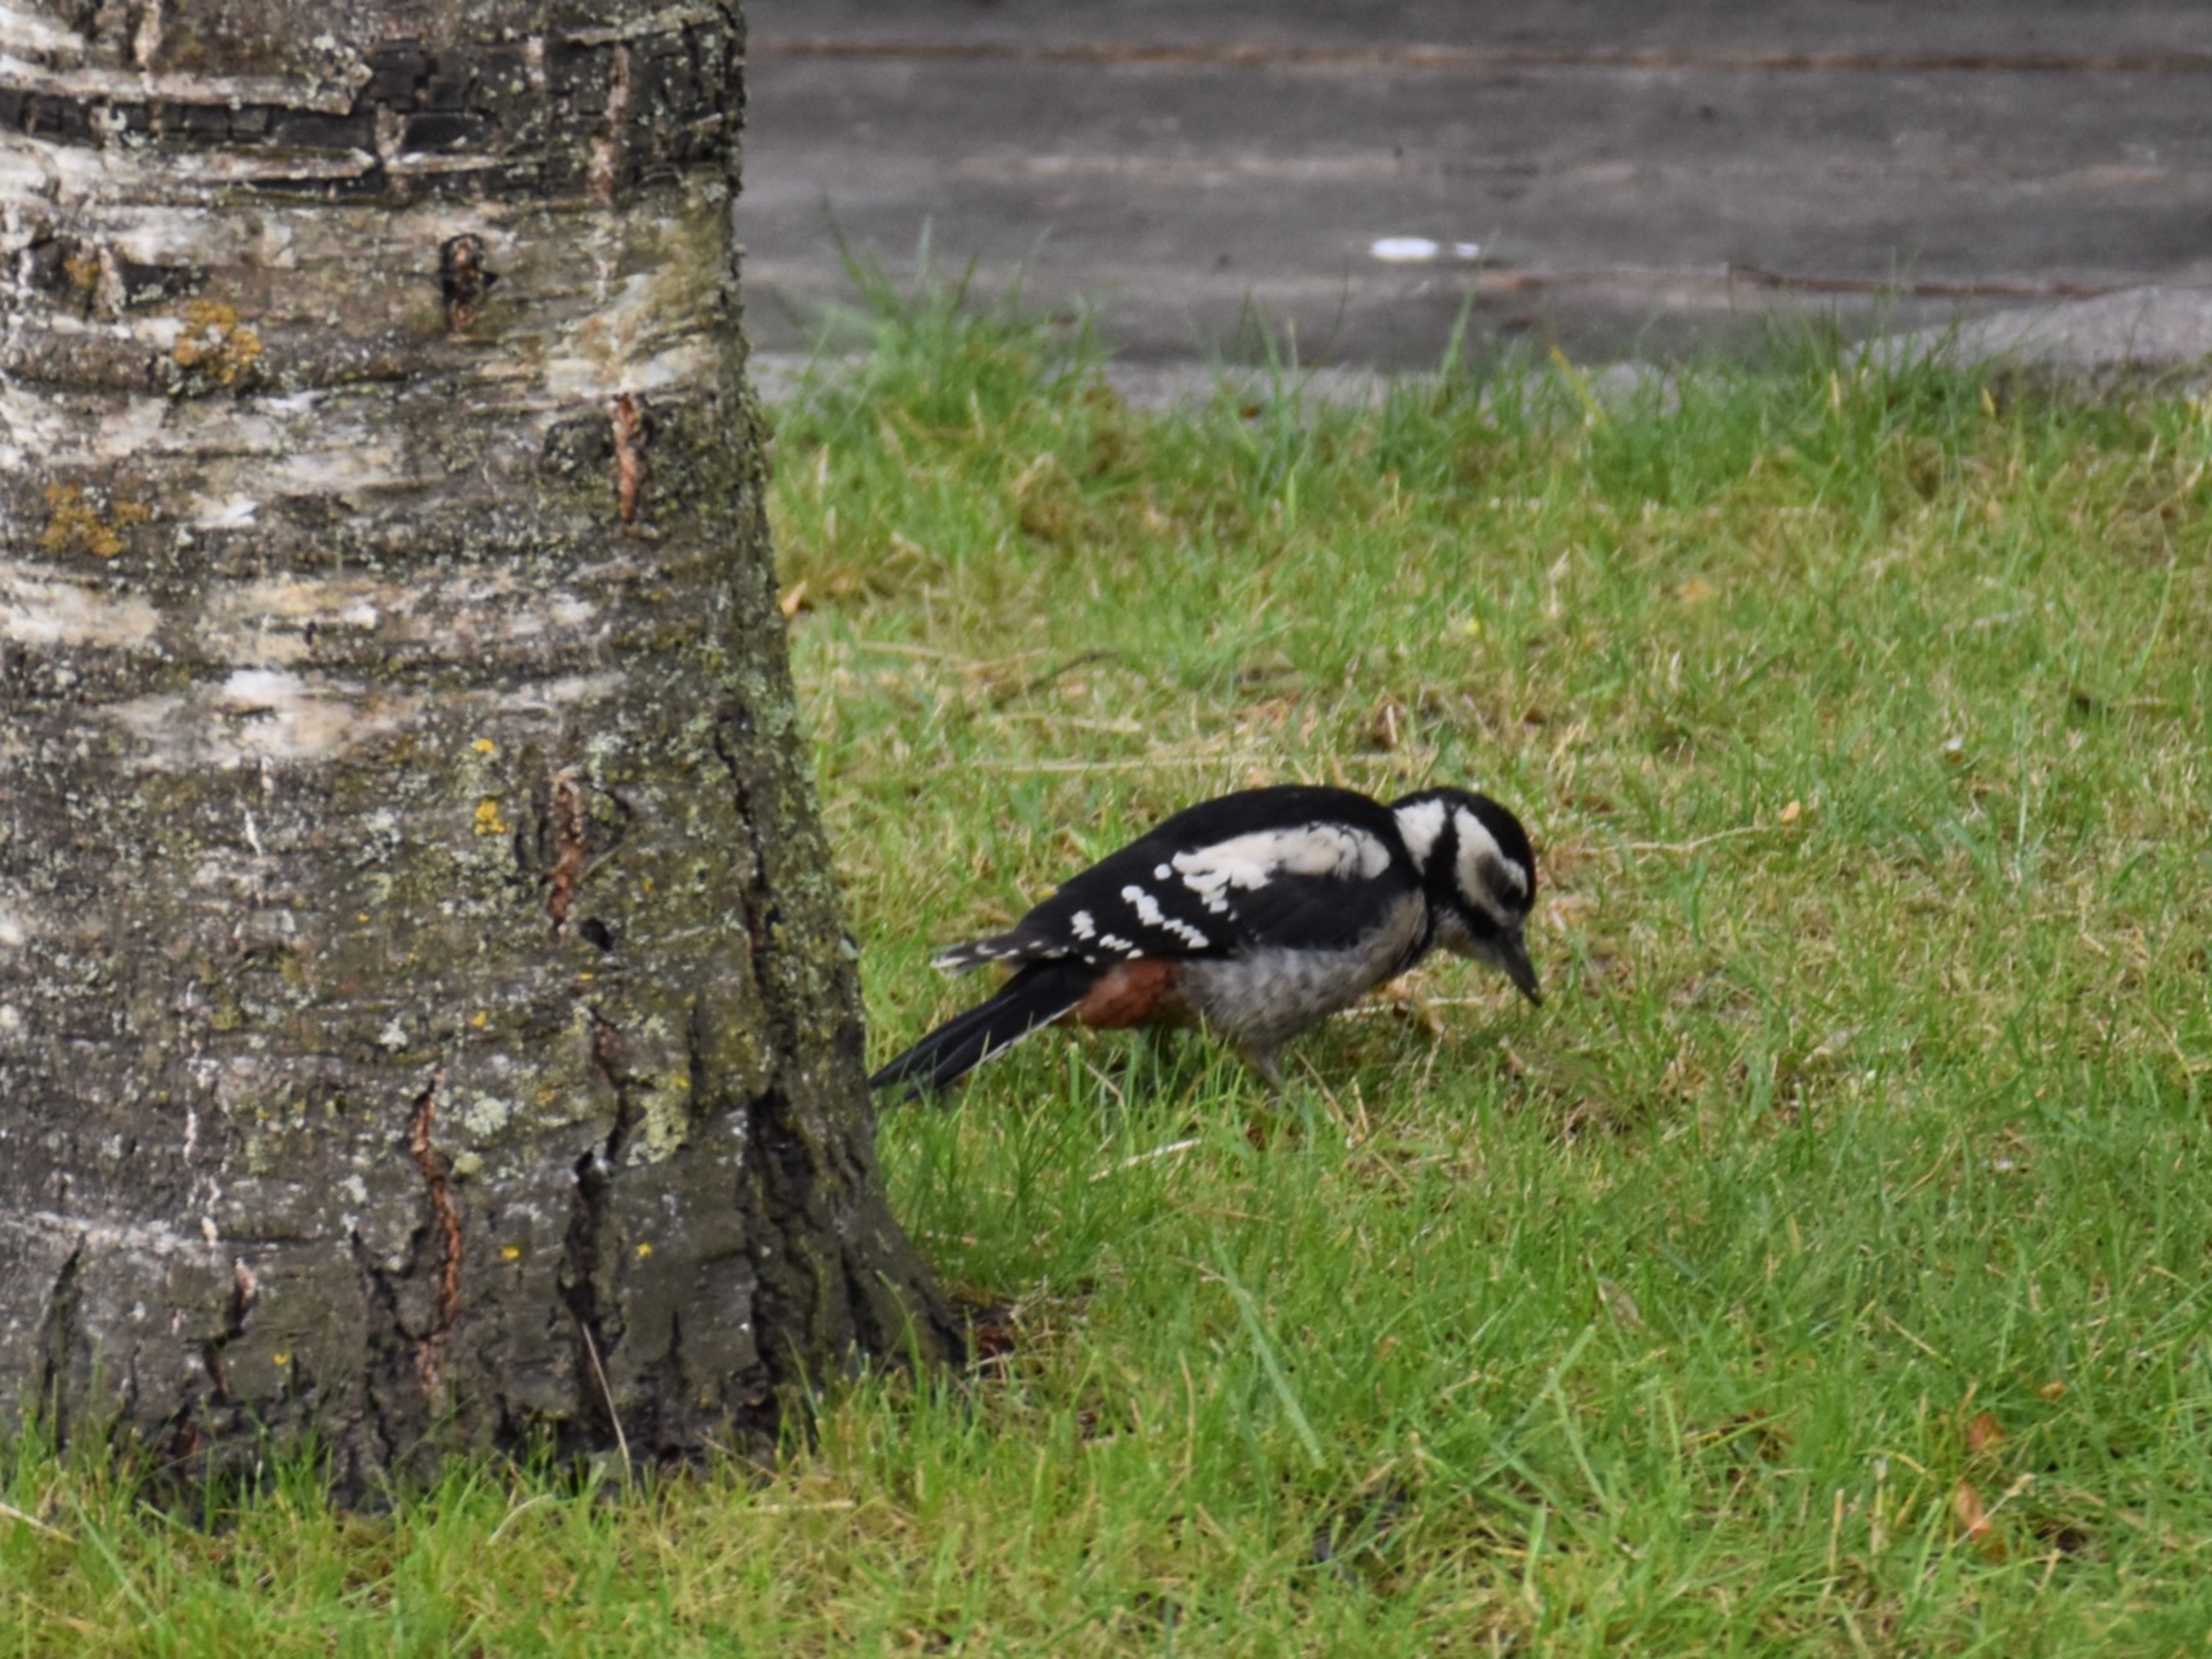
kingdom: Animalia
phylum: Chordata
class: Aves
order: Piciformes
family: Picidae
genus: Dendrocopos
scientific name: Dendrocopos major
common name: Stor flagspætte
